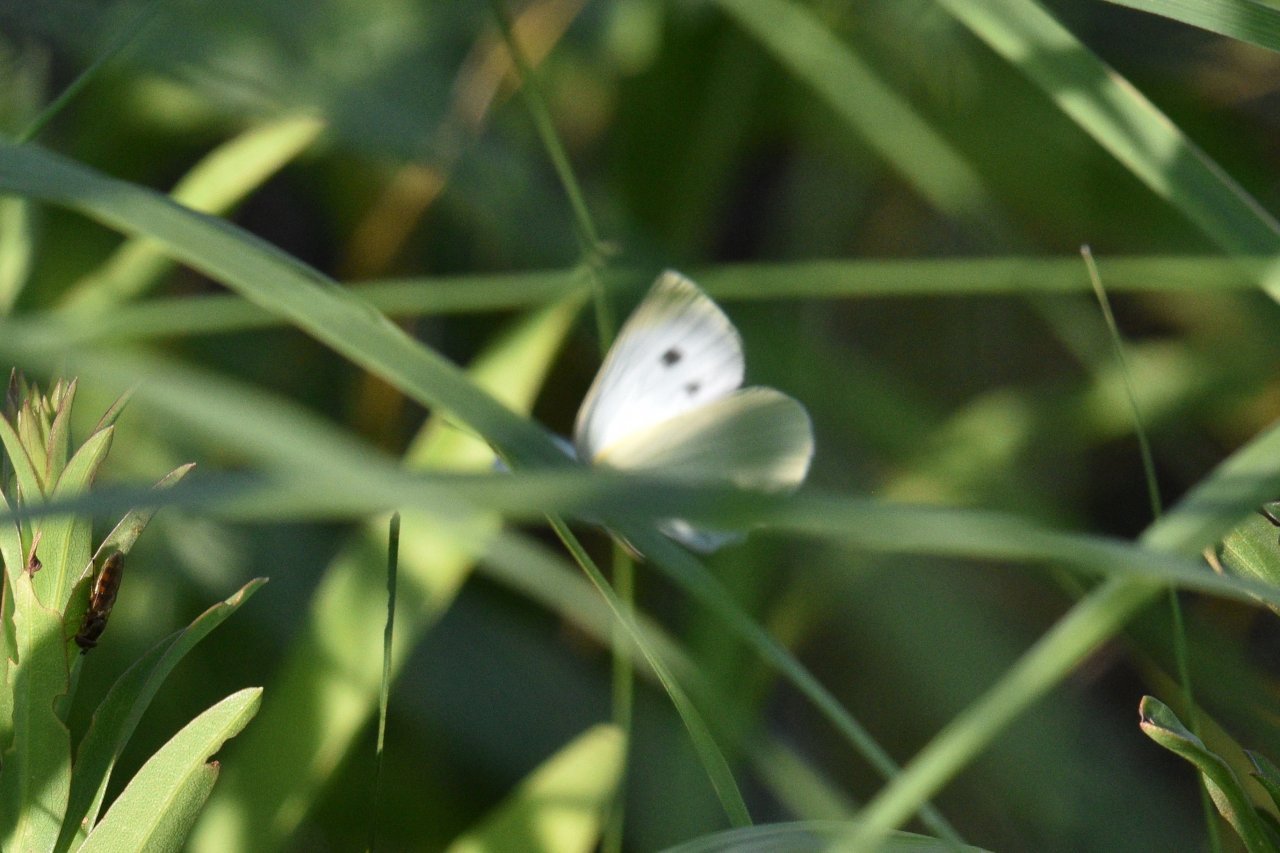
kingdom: Animalia
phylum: Arthropoda
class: Insecta
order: Lepidoptera
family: Pieridae
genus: Pieris
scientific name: Pieris rapae
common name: Cabbage White
